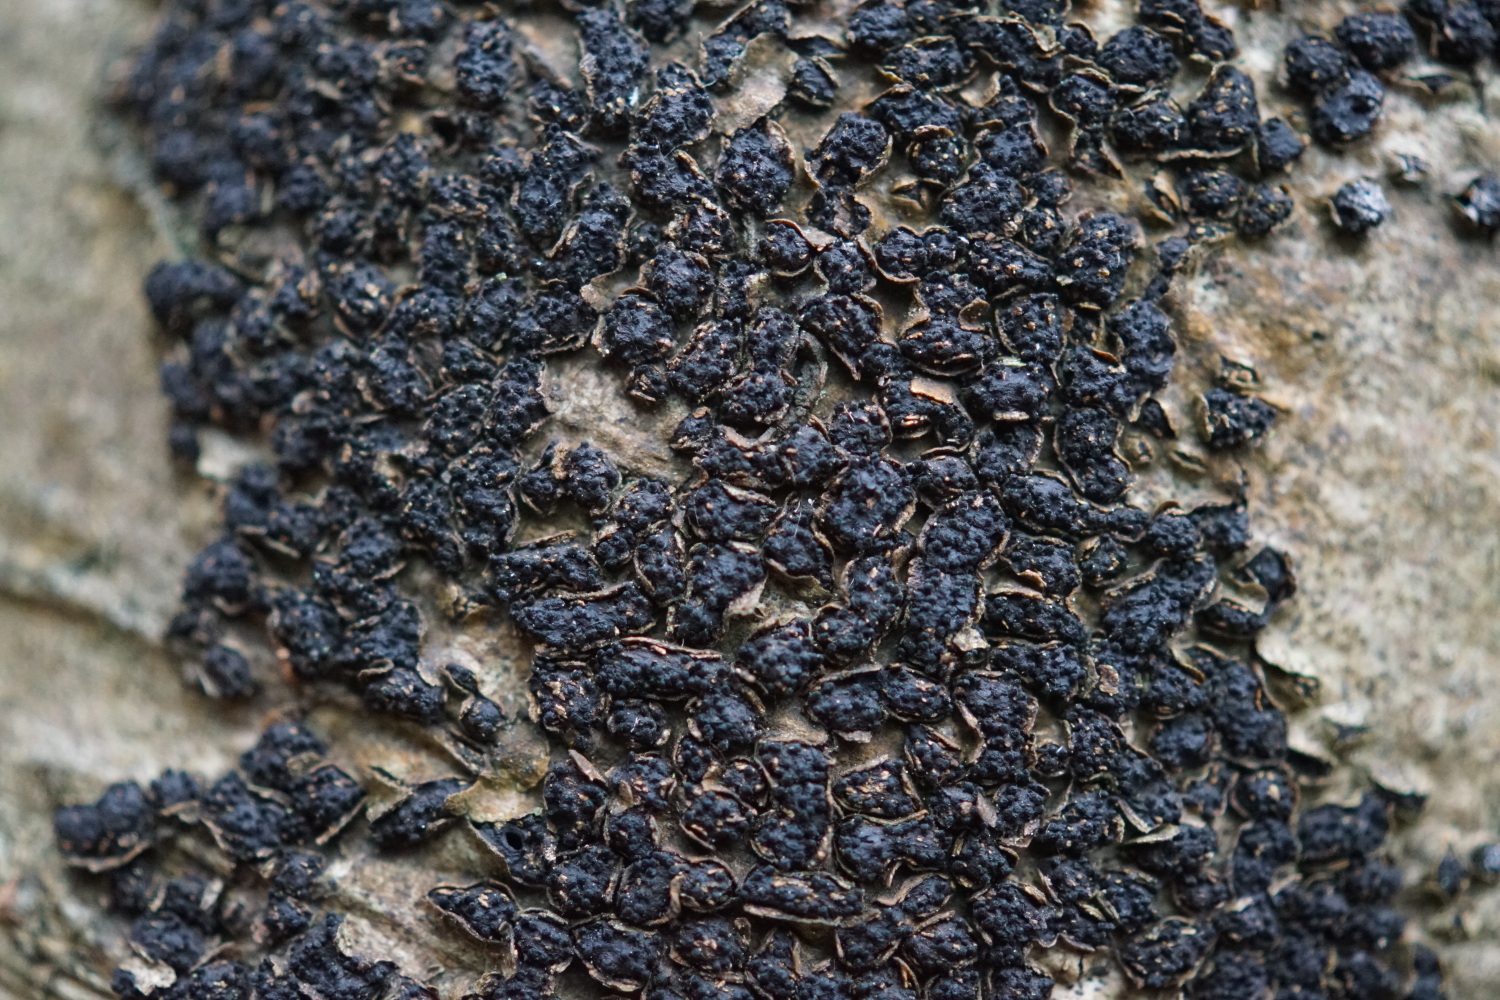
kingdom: Fungi
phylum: Ascomycota
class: Sordariomycetes
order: Xylariales
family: Melogrammataceae
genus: Melogramma
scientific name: Melogramma spiniferum
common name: bøgefod-kulhals
